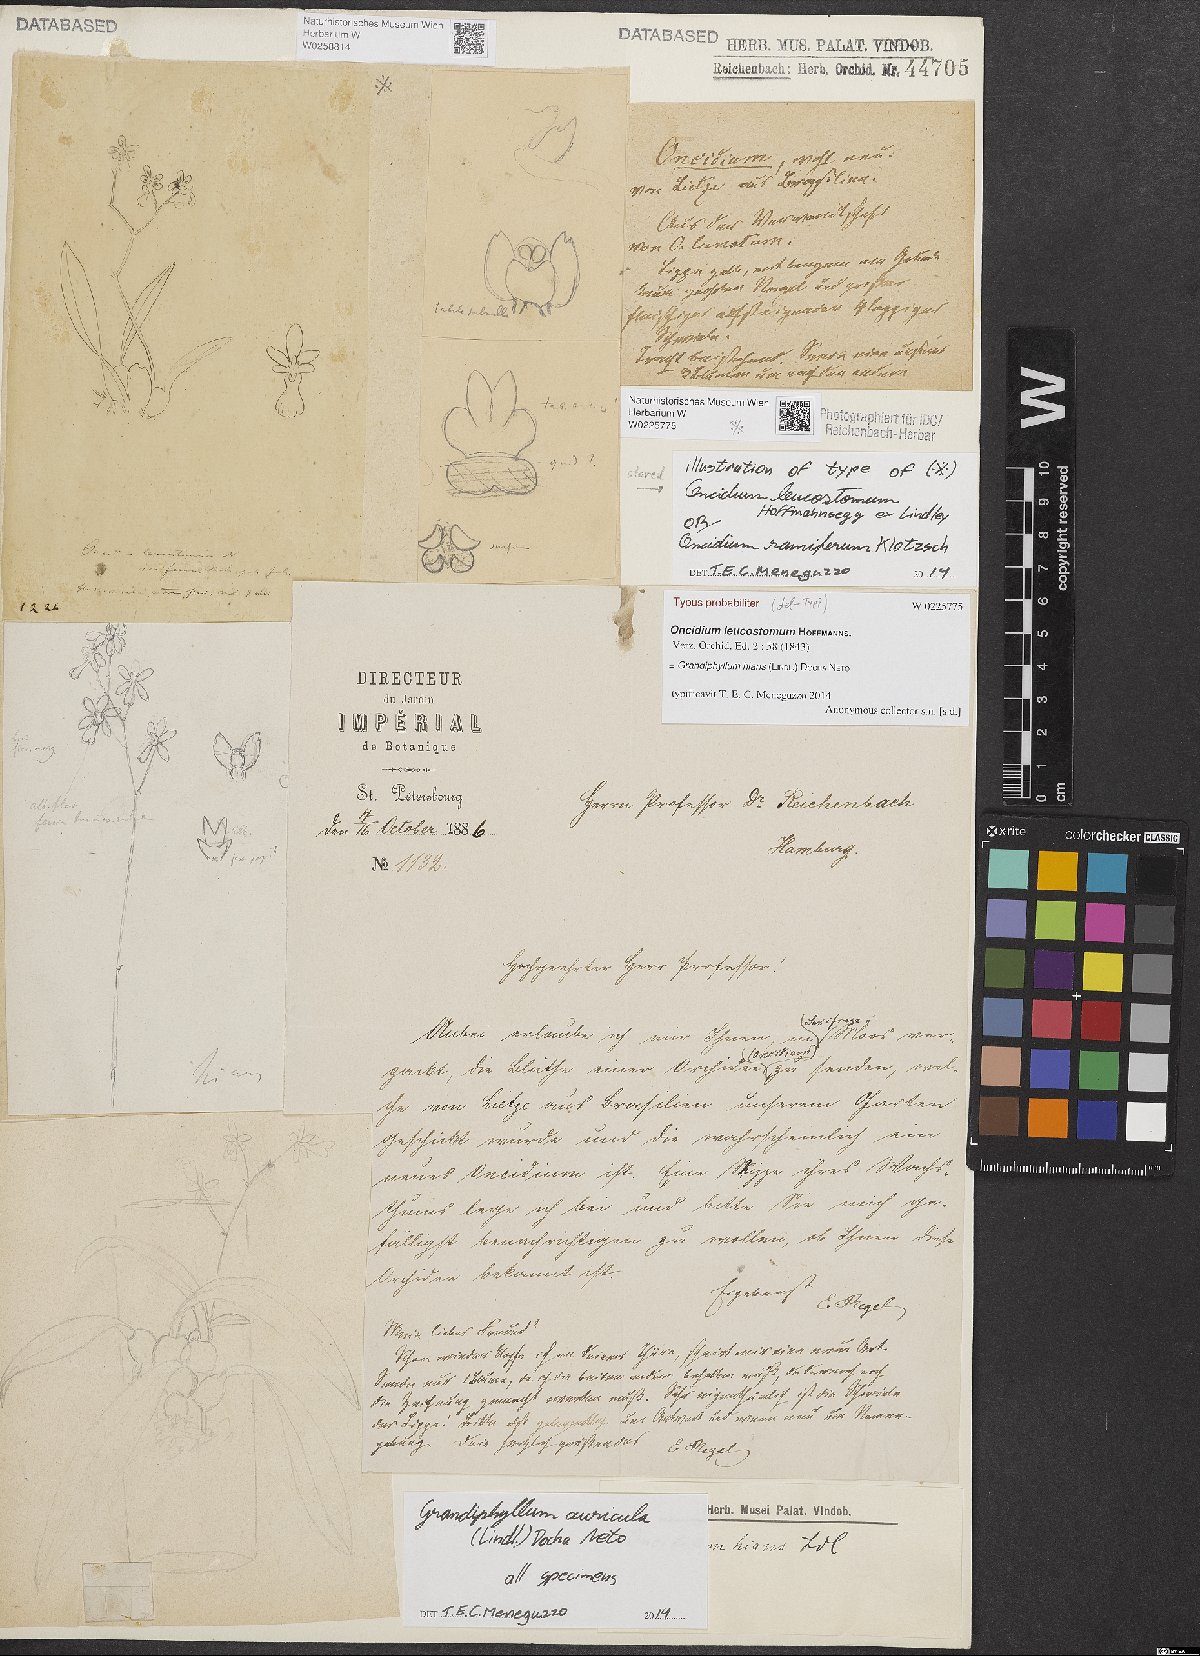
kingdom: Plantae
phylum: Tracheophyta
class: Liliopsida
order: Asparagales
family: Orchidaceae
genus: Grandiphyllum
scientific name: Grandiphyllum auricula
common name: Mule-ear orchid
